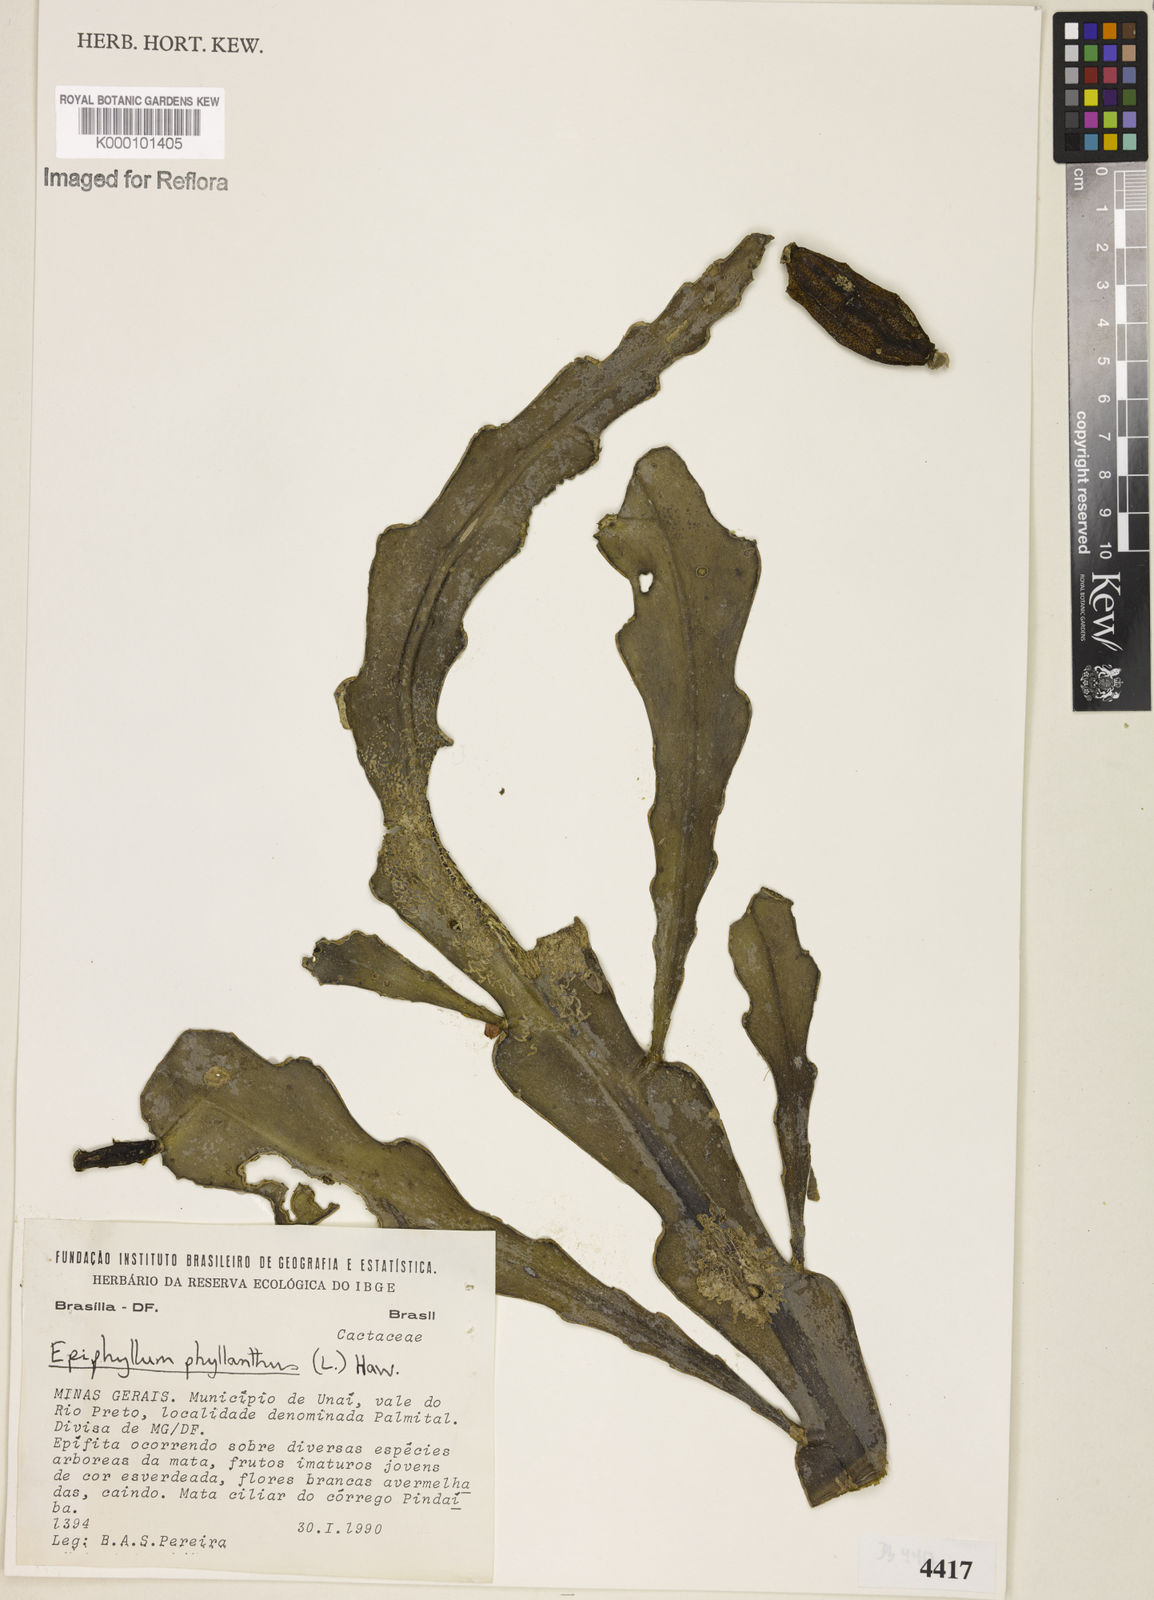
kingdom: Plantae
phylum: Tracheophyta
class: Magnoliopsida
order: Caryophyllales
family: Cactaceae
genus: Epiphyllum
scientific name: Epiphyllum phyllanthus
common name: Climbing cactus
